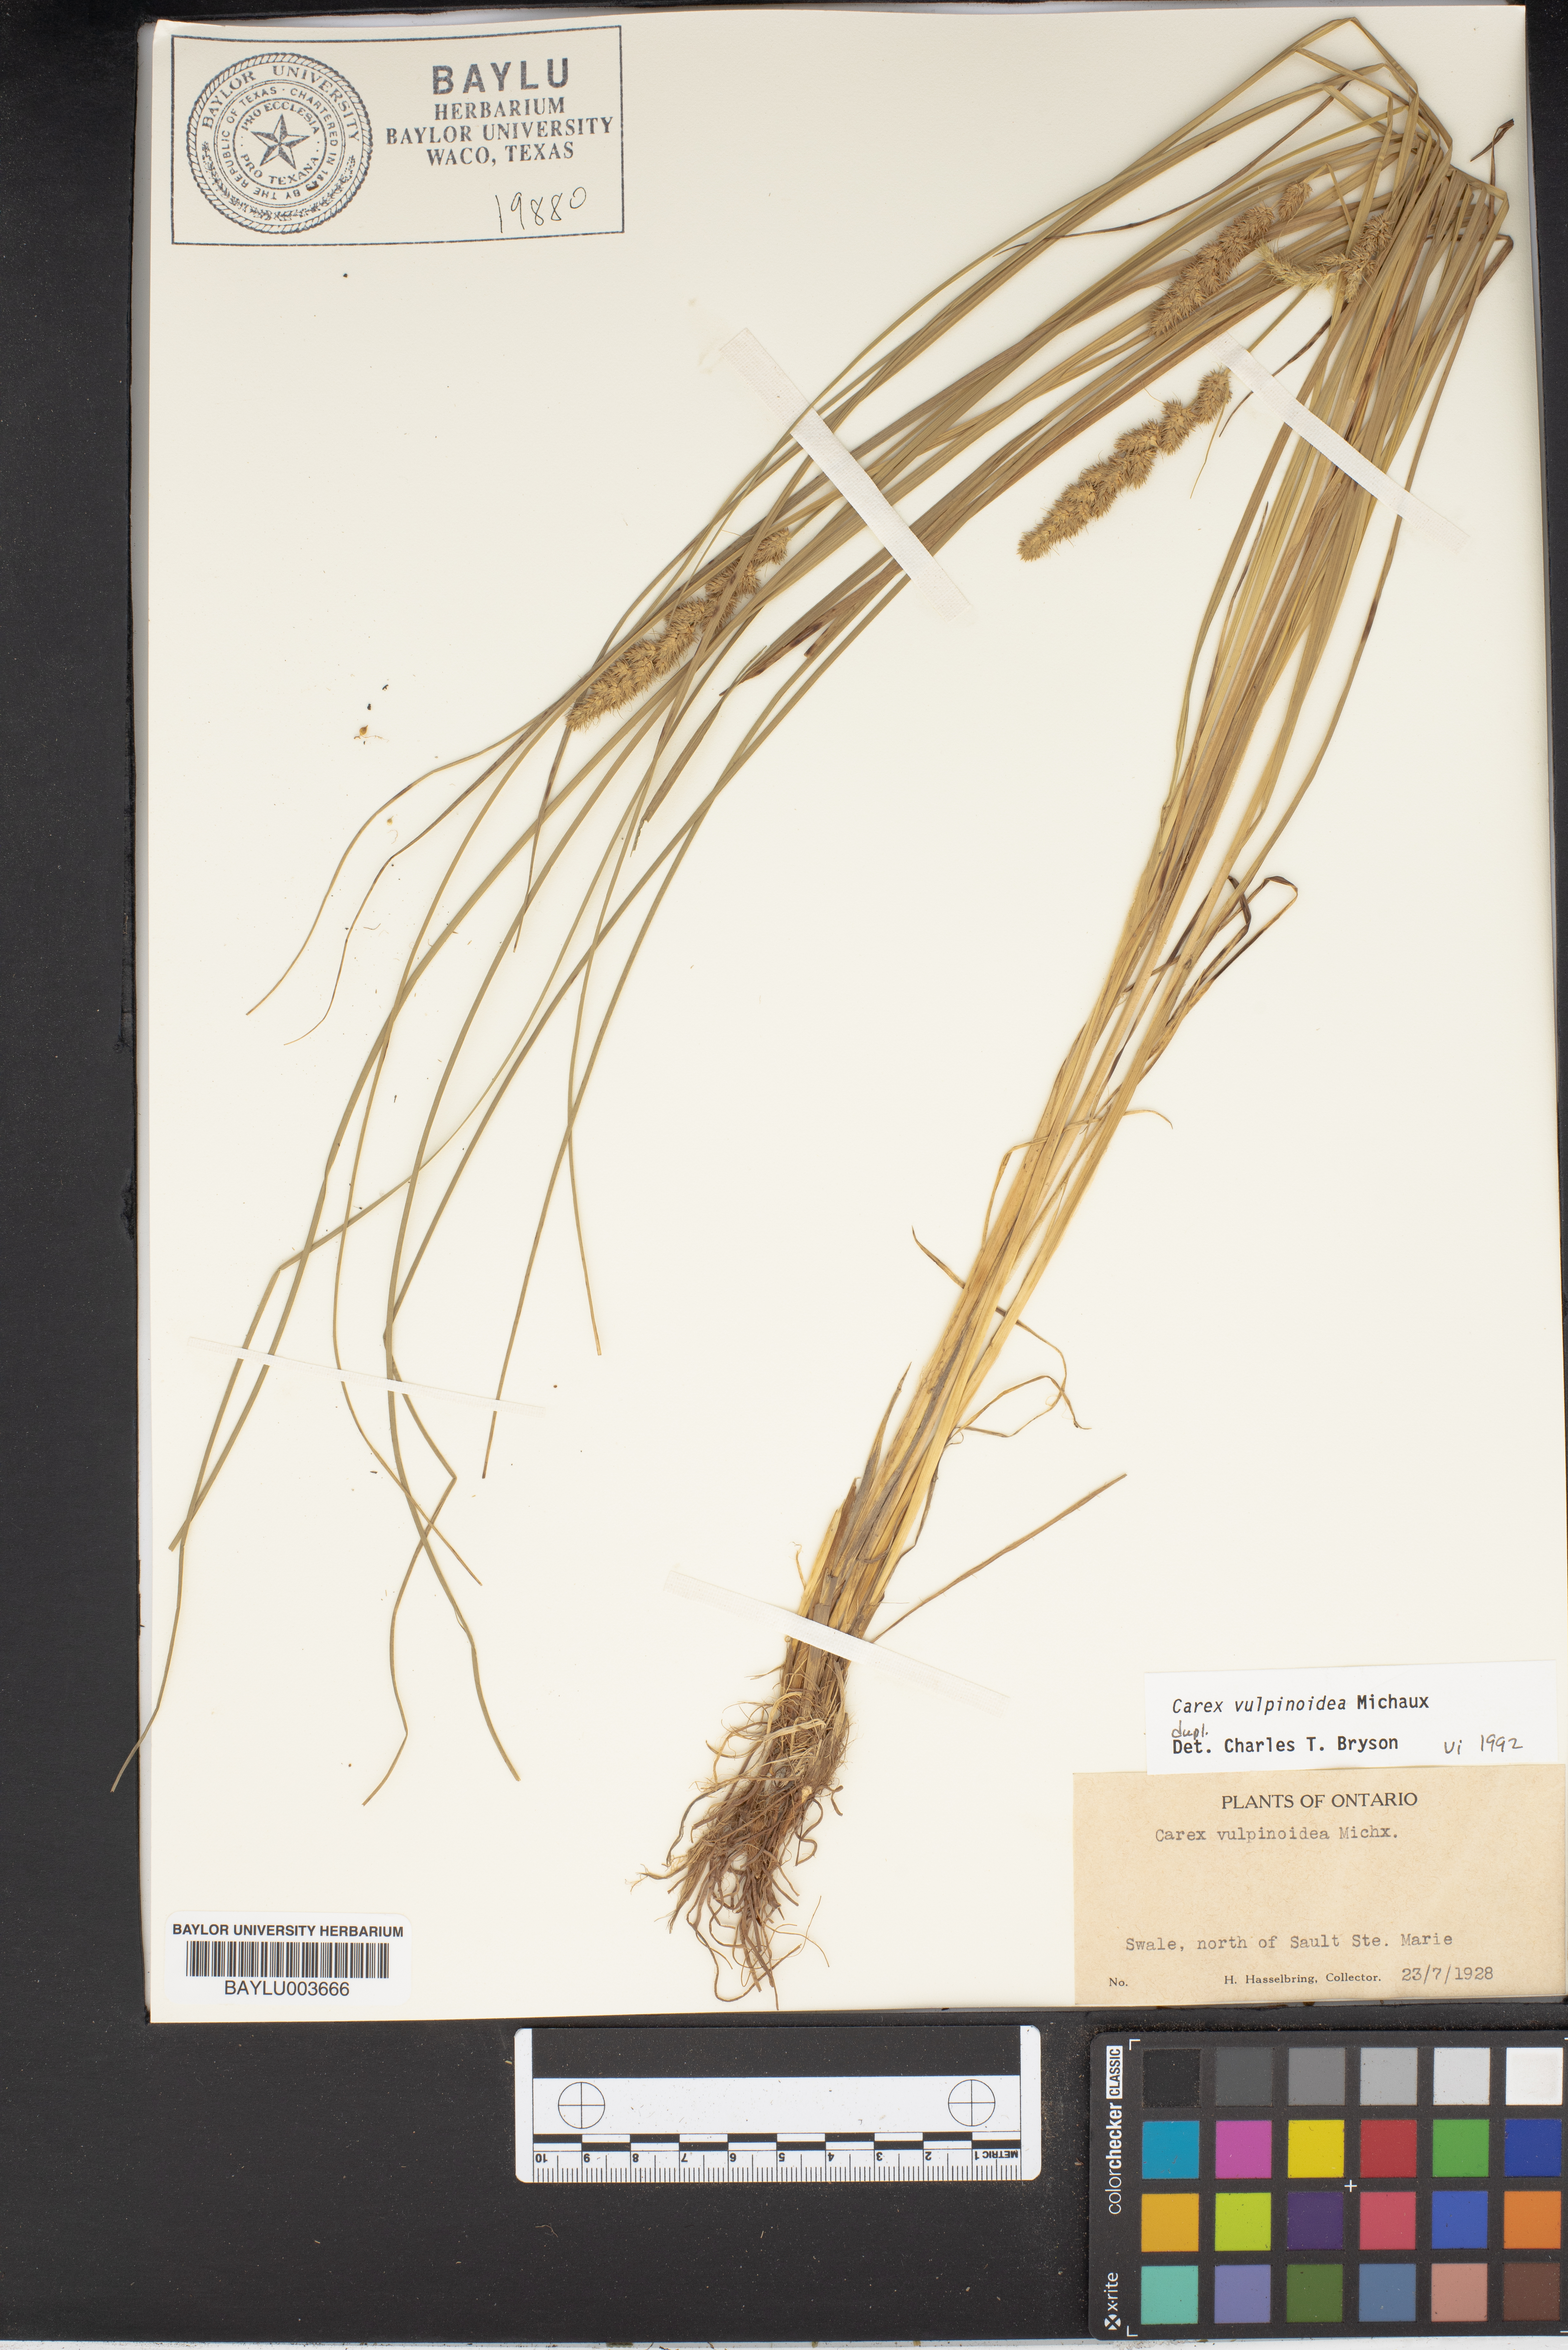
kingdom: Plantae
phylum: Tracheophyta
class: Liliopsida
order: Poales
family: Cyperaceae
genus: Carex
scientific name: Carex vulpinoidea
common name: American fox-sedge
